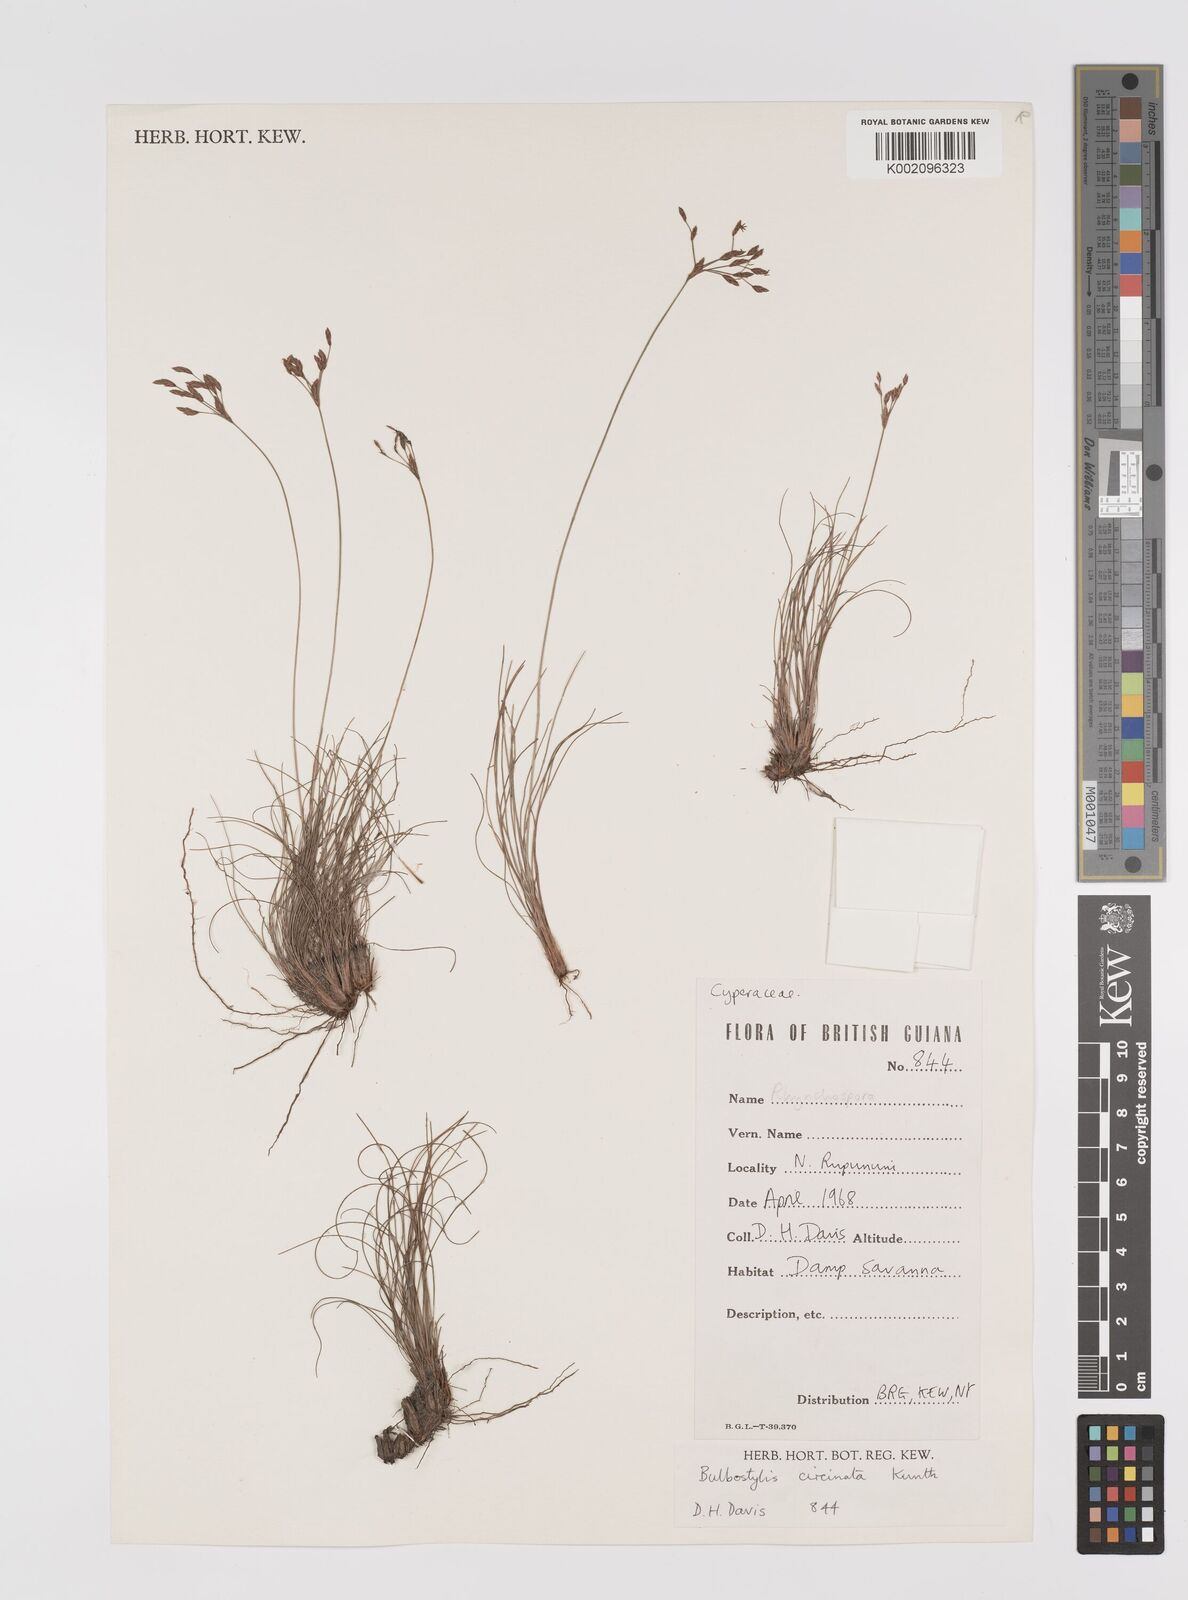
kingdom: Plantae
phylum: Tracheophyta
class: Liliopsida
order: Poales
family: Cyperaceae
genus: Bulbostylis
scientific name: Bulbostylis circinata
